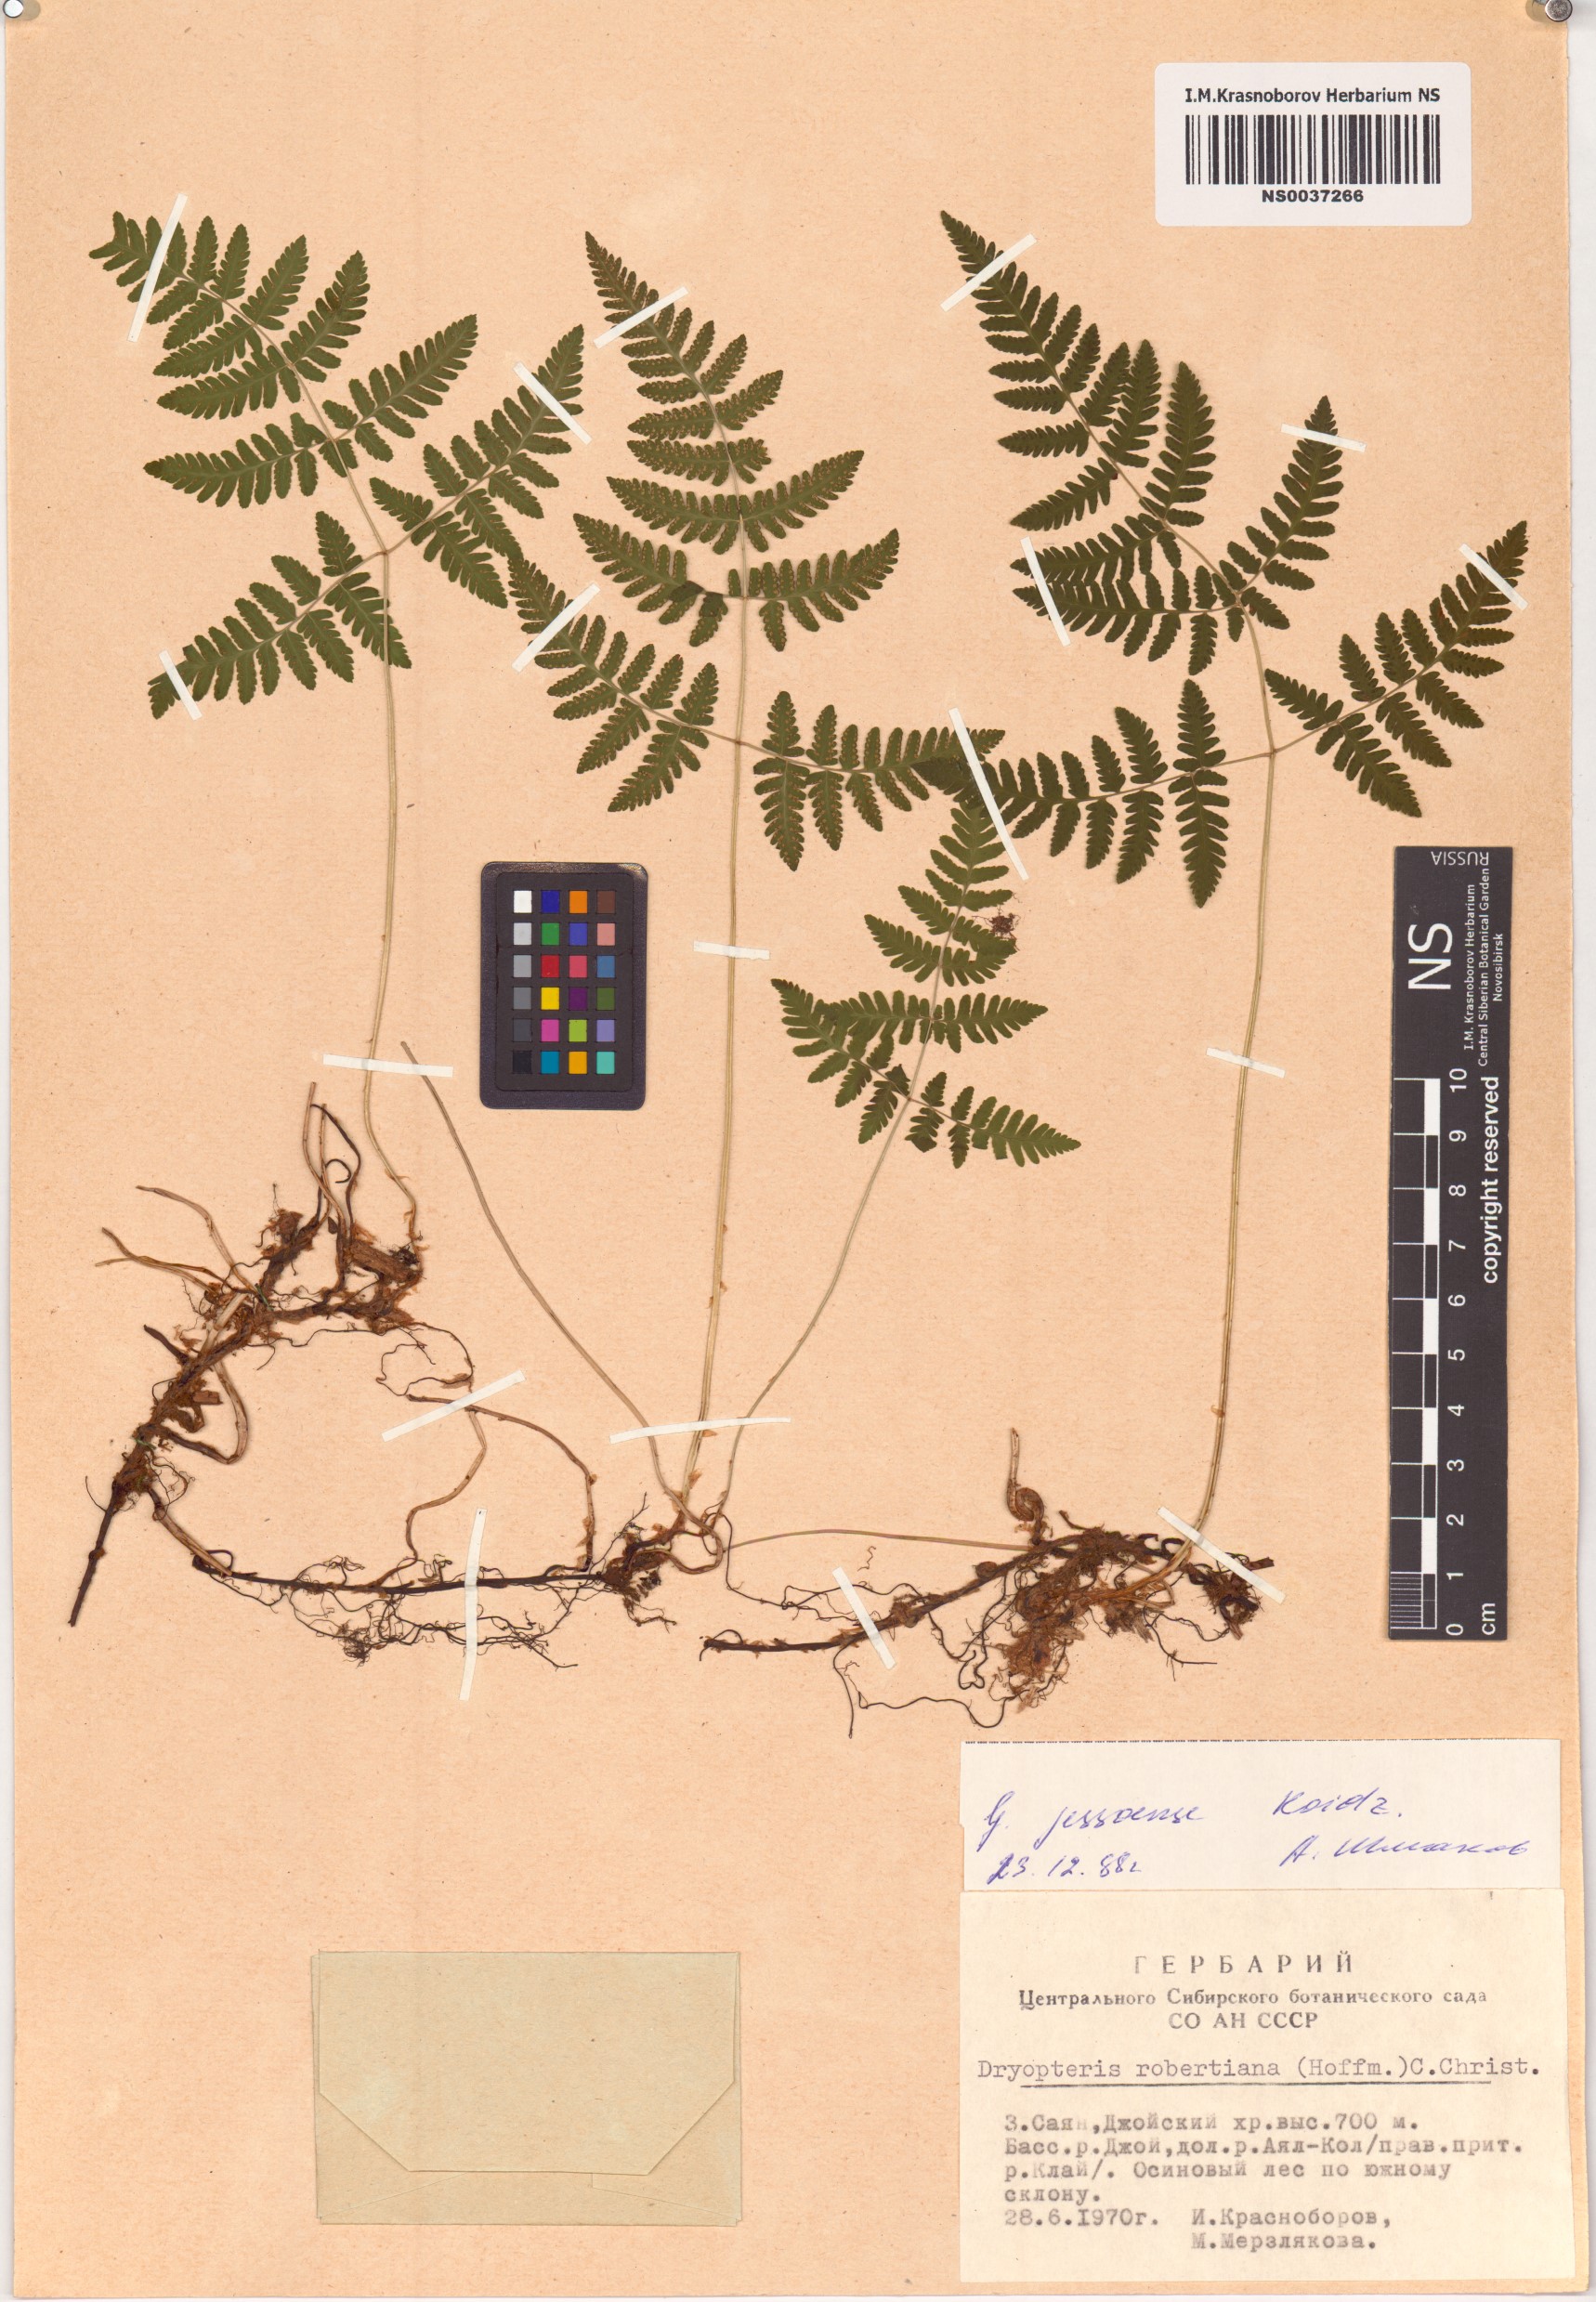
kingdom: Plantae
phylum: Tracheophyta
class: Polypodiopsida
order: Polypodiales
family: Cystopteridaceae
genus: Gymnocarpium
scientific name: Gymnocarpium jessoense
